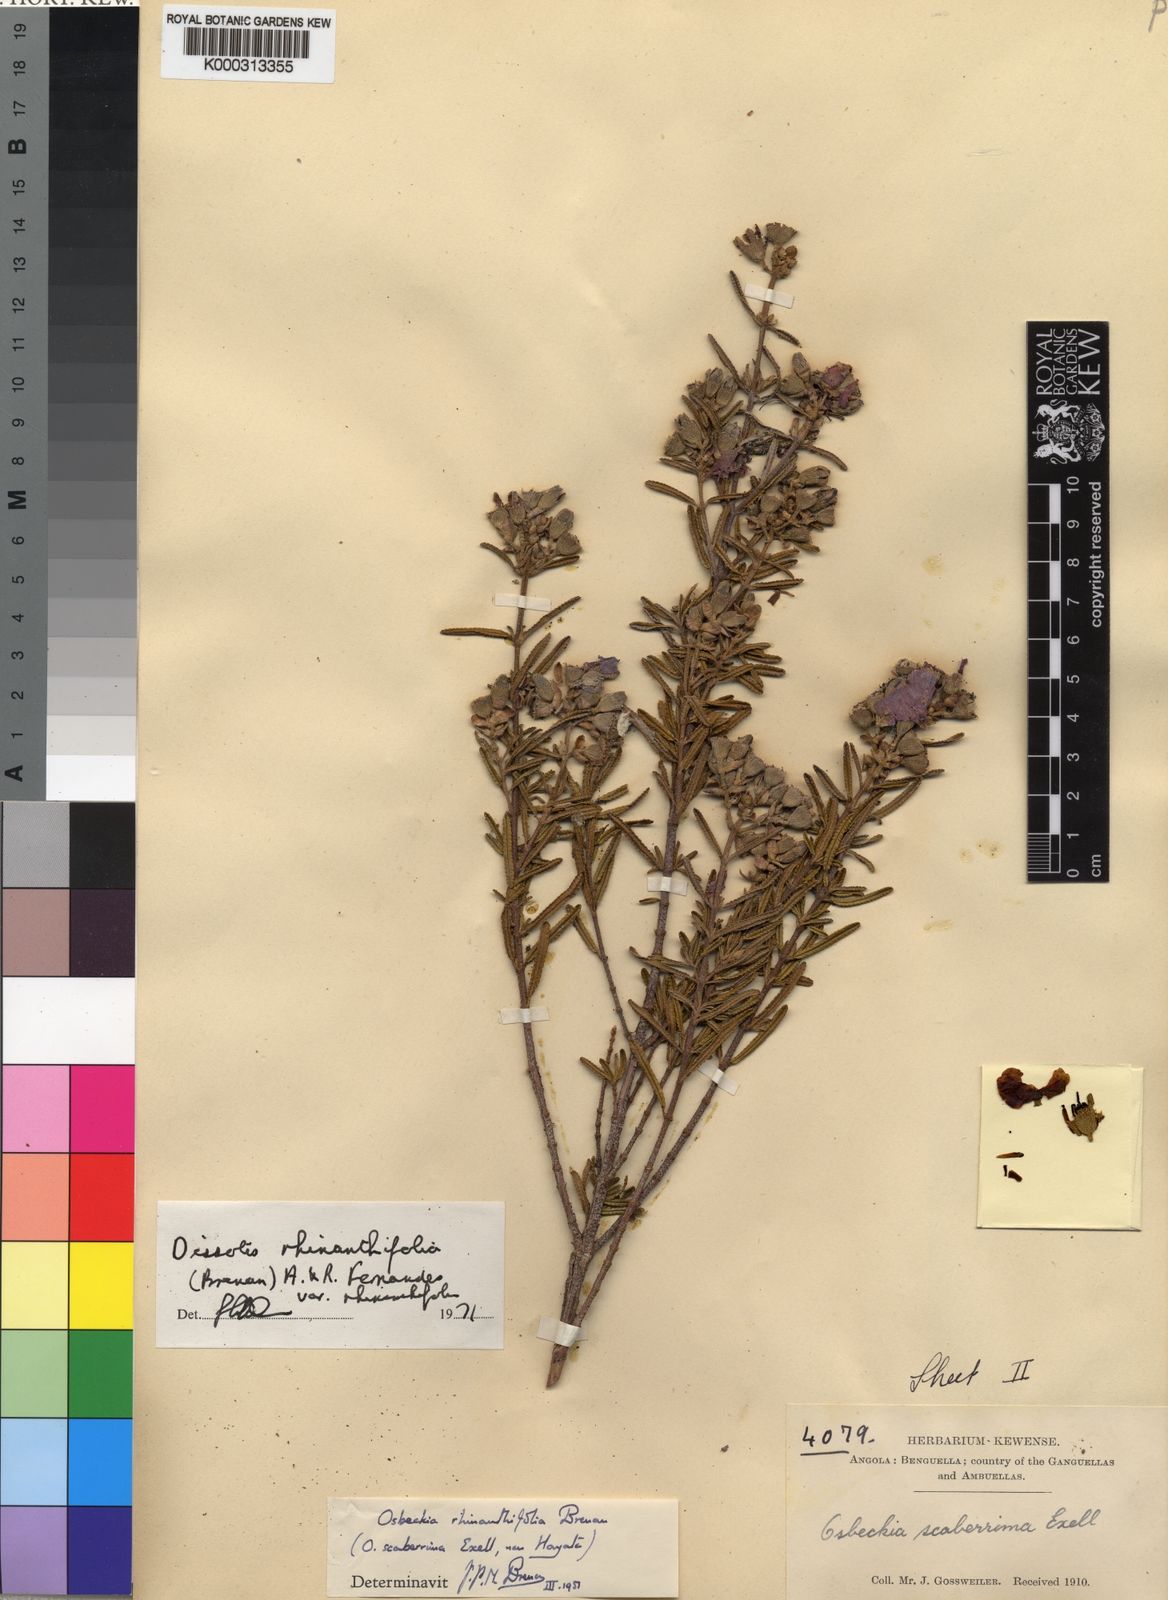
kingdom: Plantae
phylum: Tracheophyta
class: Magnoliopsida
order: Myrtales
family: Melastomataceae
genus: Rosettea
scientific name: Rosettea rhinanthifolia
